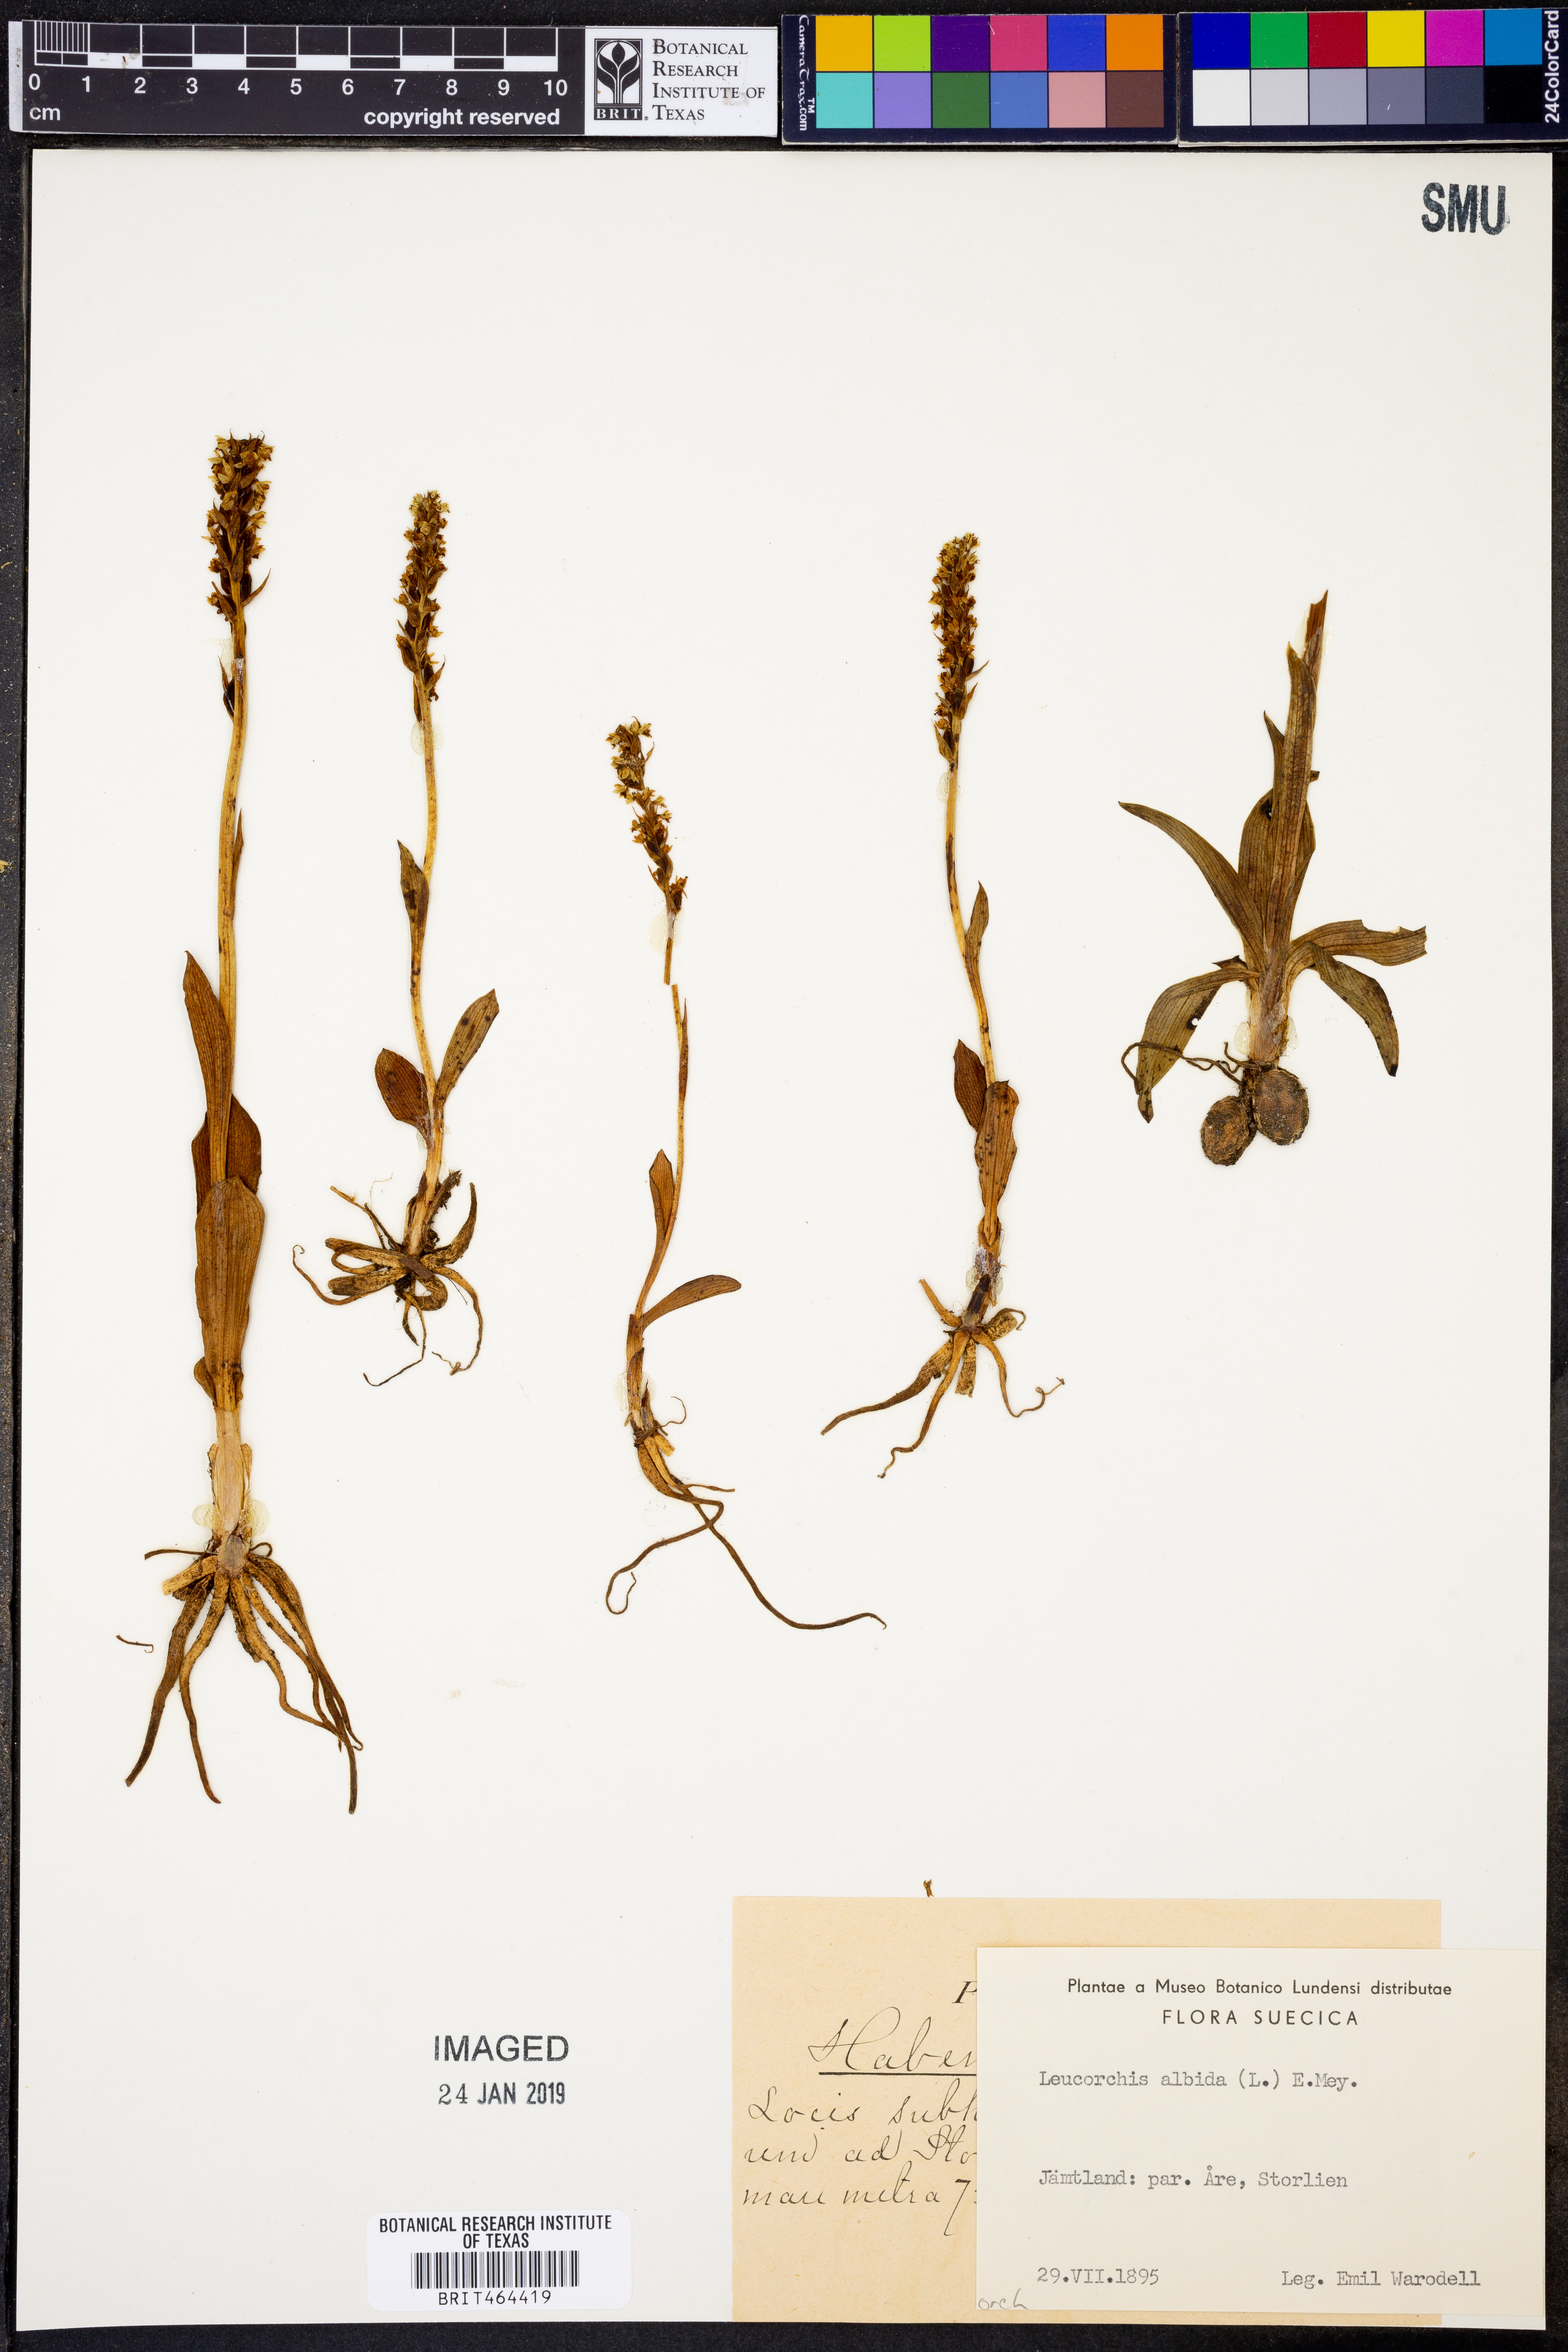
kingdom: Plantae
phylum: Tracheophyta
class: Liliopsida
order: Asparagales
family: Orchidaceae
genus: Pseudorchis
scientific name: Pseudorchis albida
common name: Small-white orchid
